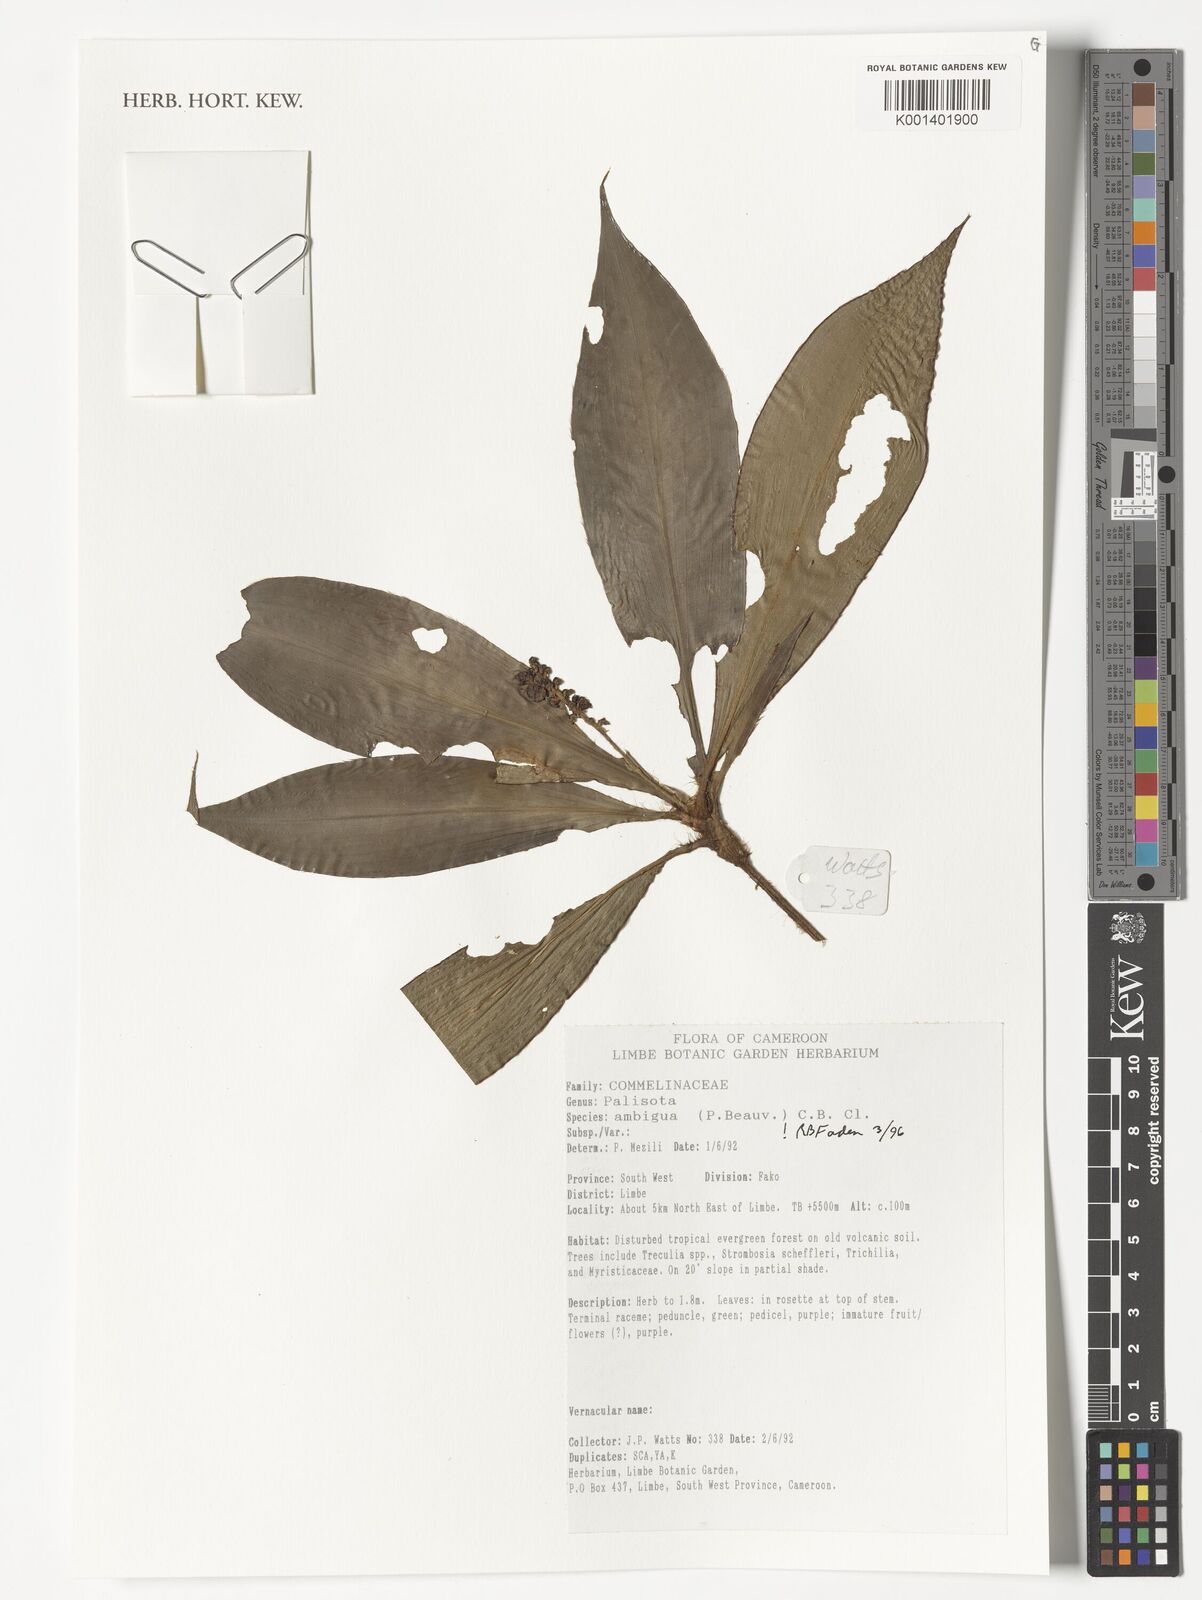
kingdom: Plantae
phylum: Tracheophyta
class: Liliopsida
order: Commelinales
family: Commelinaceae
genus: Palisota
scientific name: Palisota ambigua
